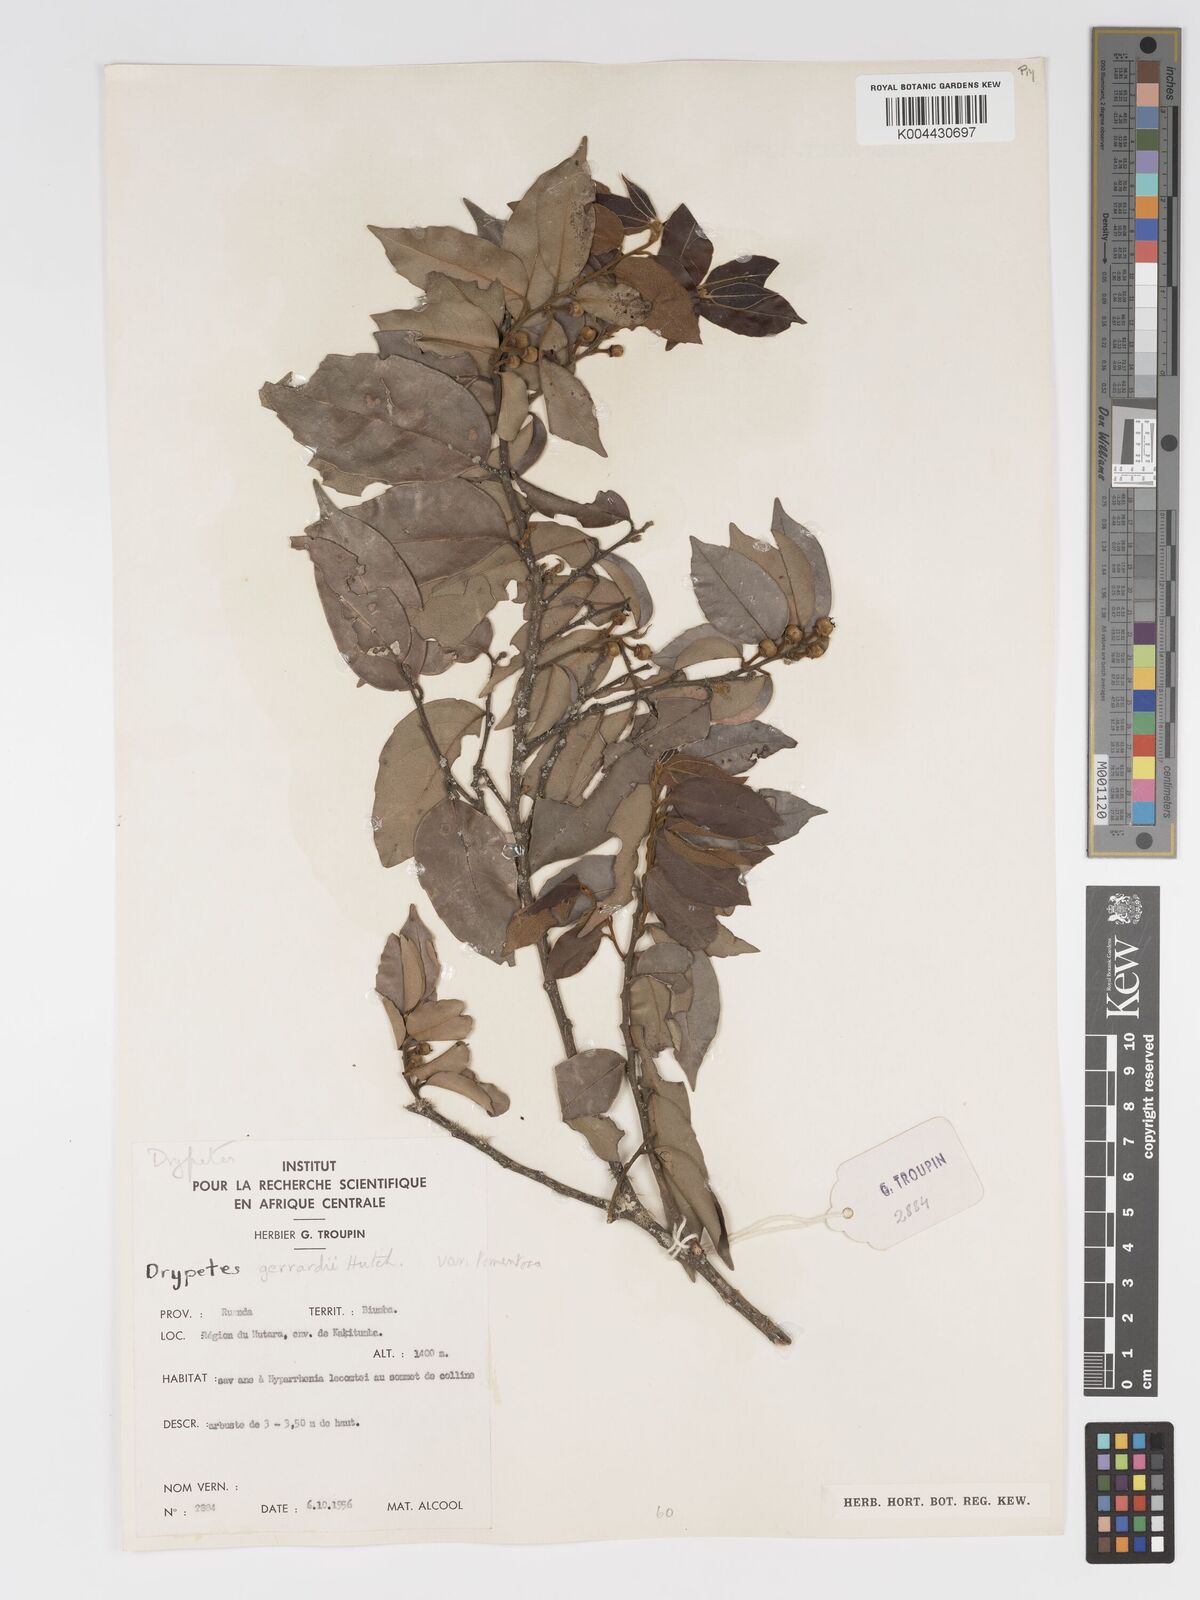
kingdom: Plantae
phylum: Tracheophyta
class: Magnoliopsida
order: Malpighiales
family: Putranjivaceae
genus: Drypetes
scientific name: Drypetes gerrardii
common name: Forest ironplum
